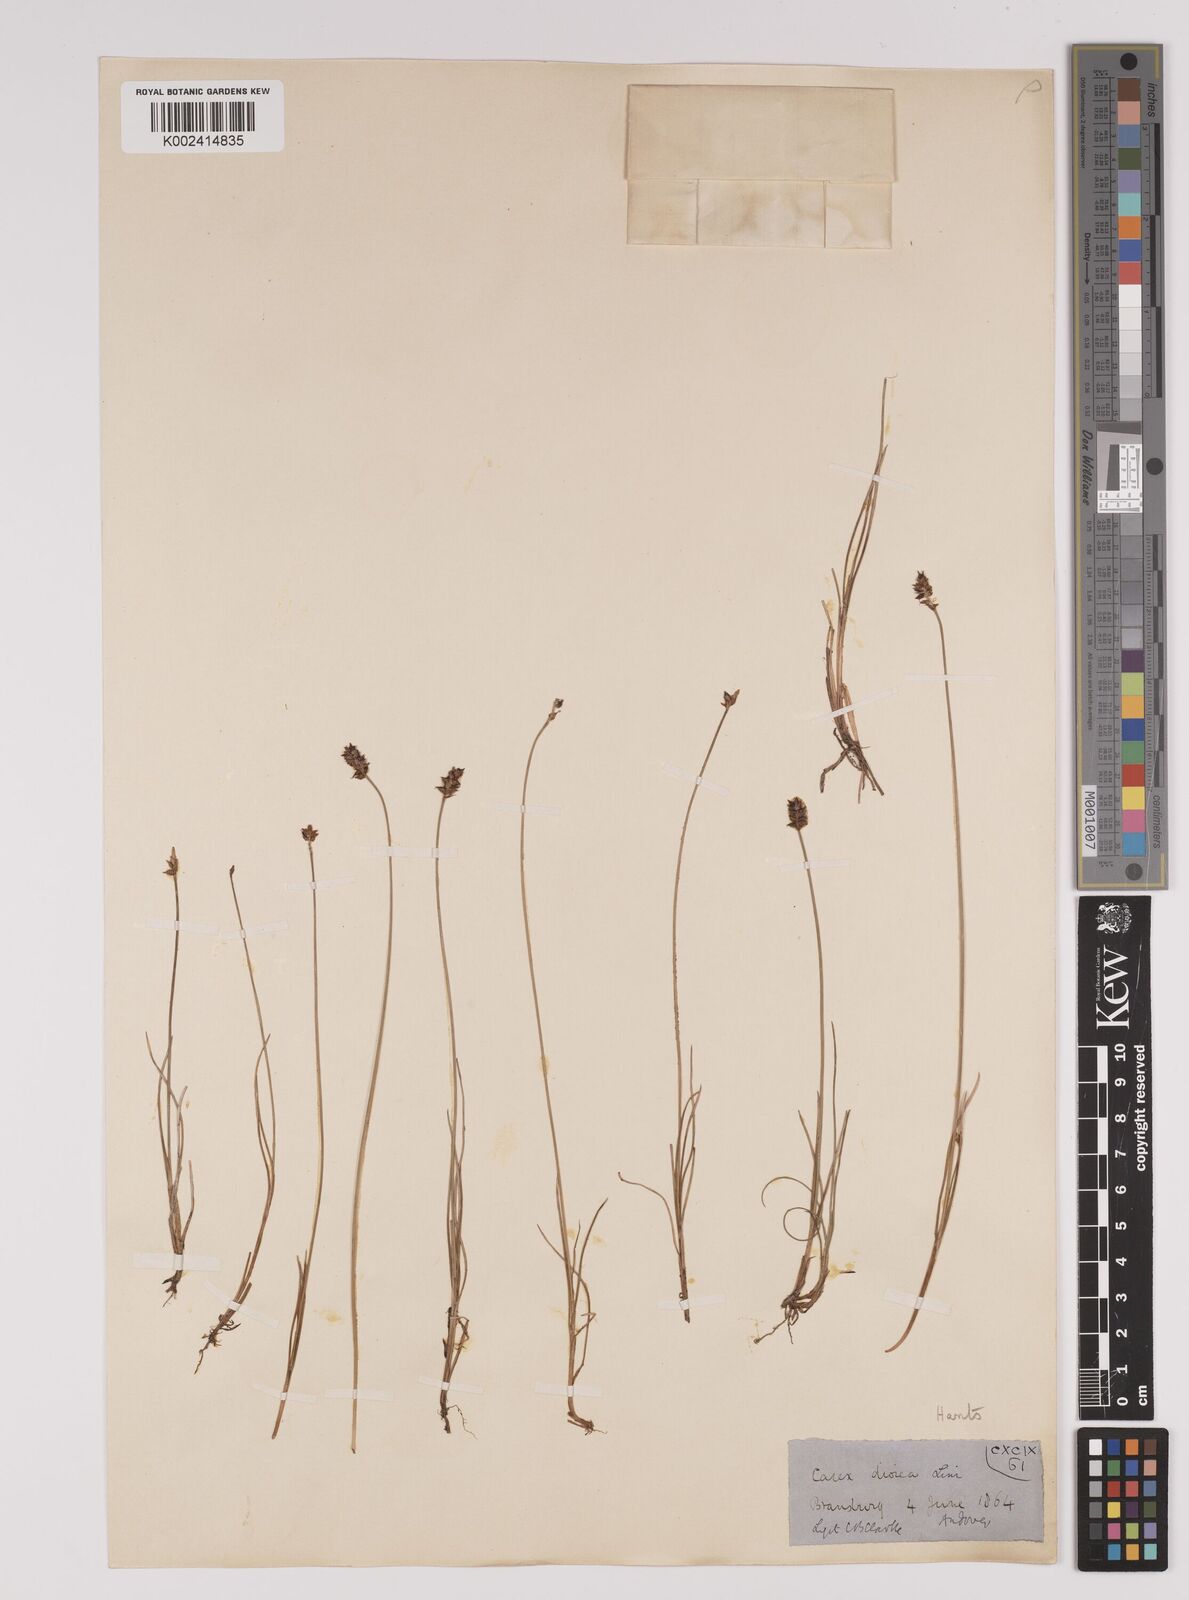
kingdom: Plantae
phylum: Tracheophyta
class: Liliopsida
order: Poales
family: Cyperaceae
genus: Carex
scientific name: Carex dioica
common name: Dioecious sedge
